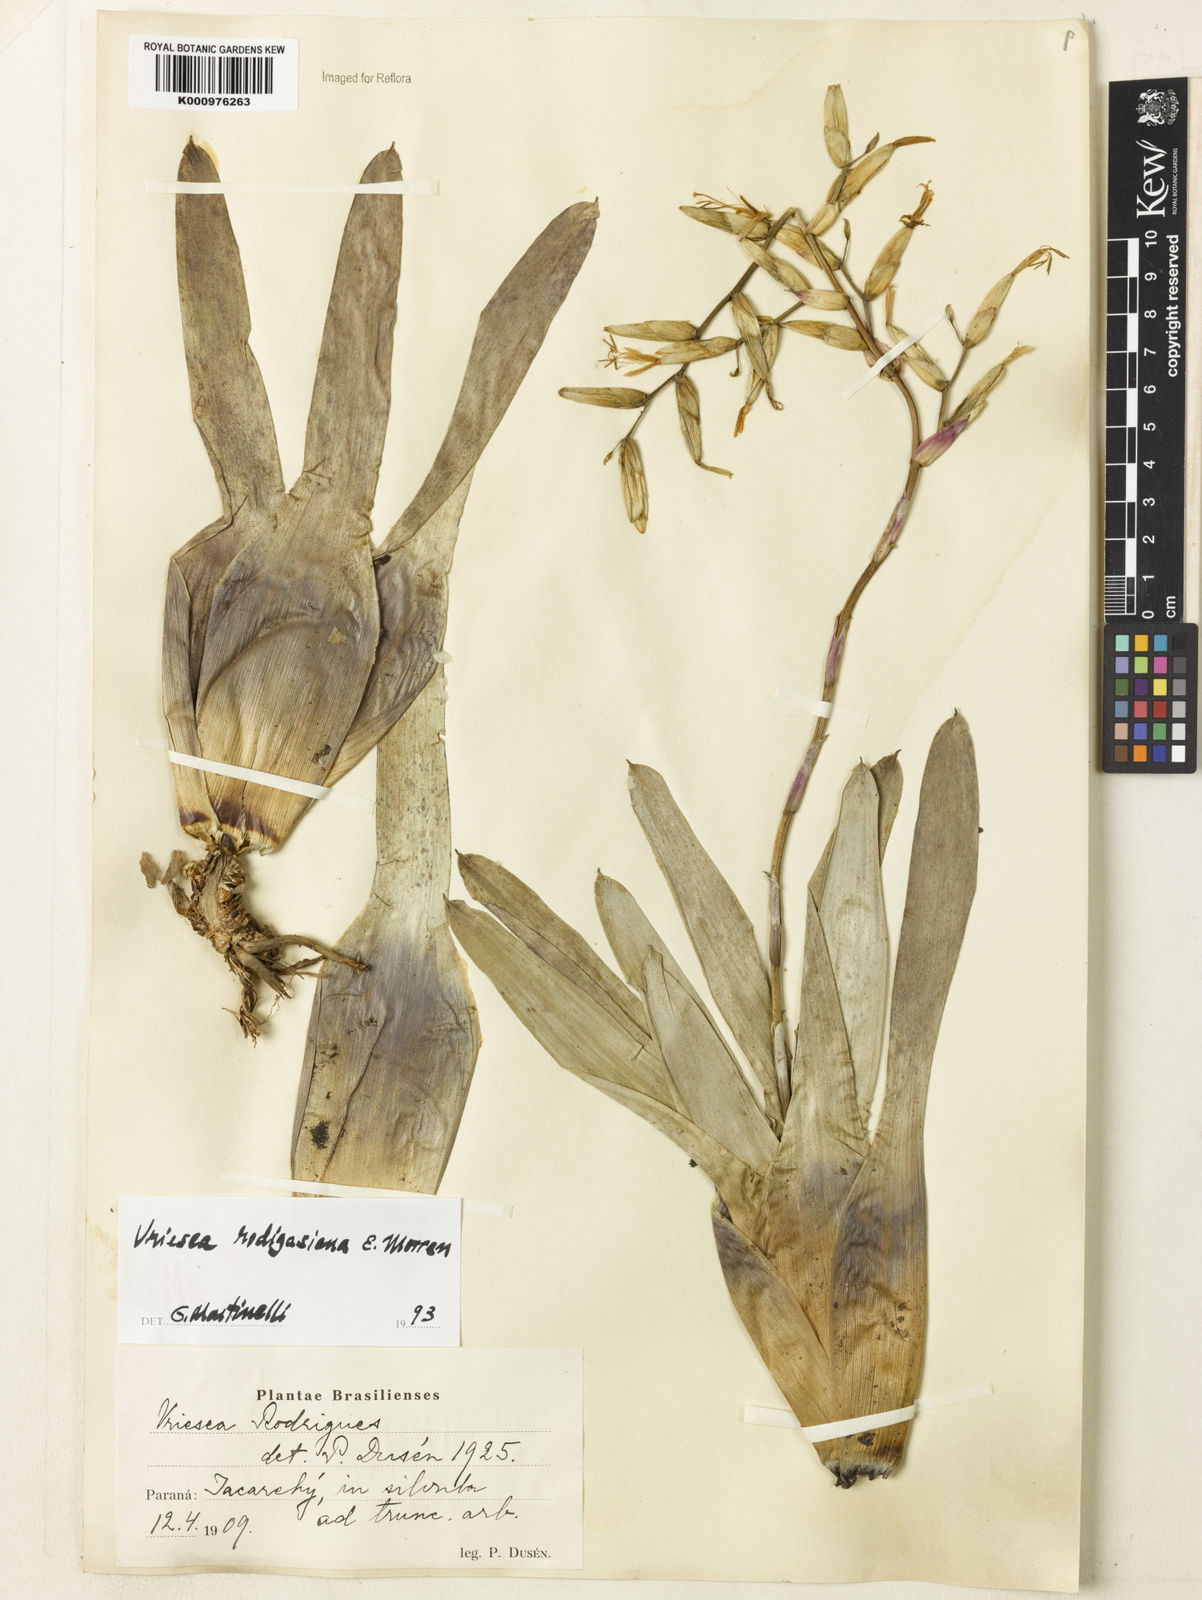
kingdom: Plantae
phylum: Tracheophyta
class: Liliopsida
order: Poales
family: Bromeliaceae
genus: Vriesea
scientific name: Vriesea rodigasiana
